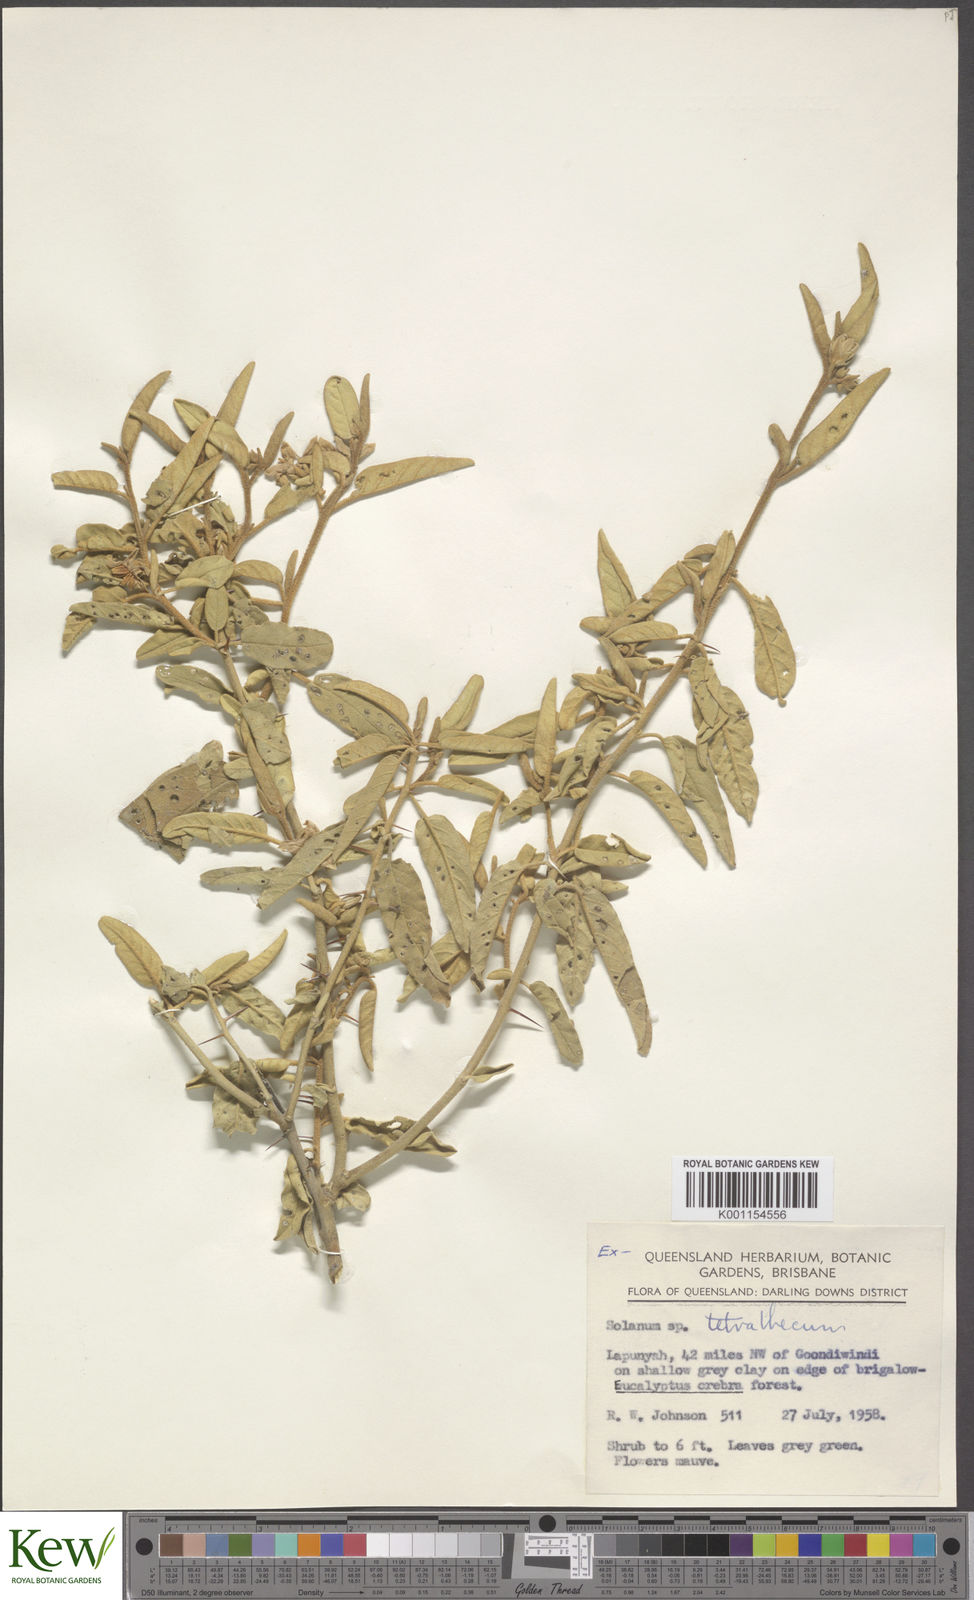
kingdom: Plantae
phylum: Tracheophyta
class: Magnoliopsida
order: Solanales
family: Solanaceae
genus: Solanum
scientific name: Solanum tetrathecum
